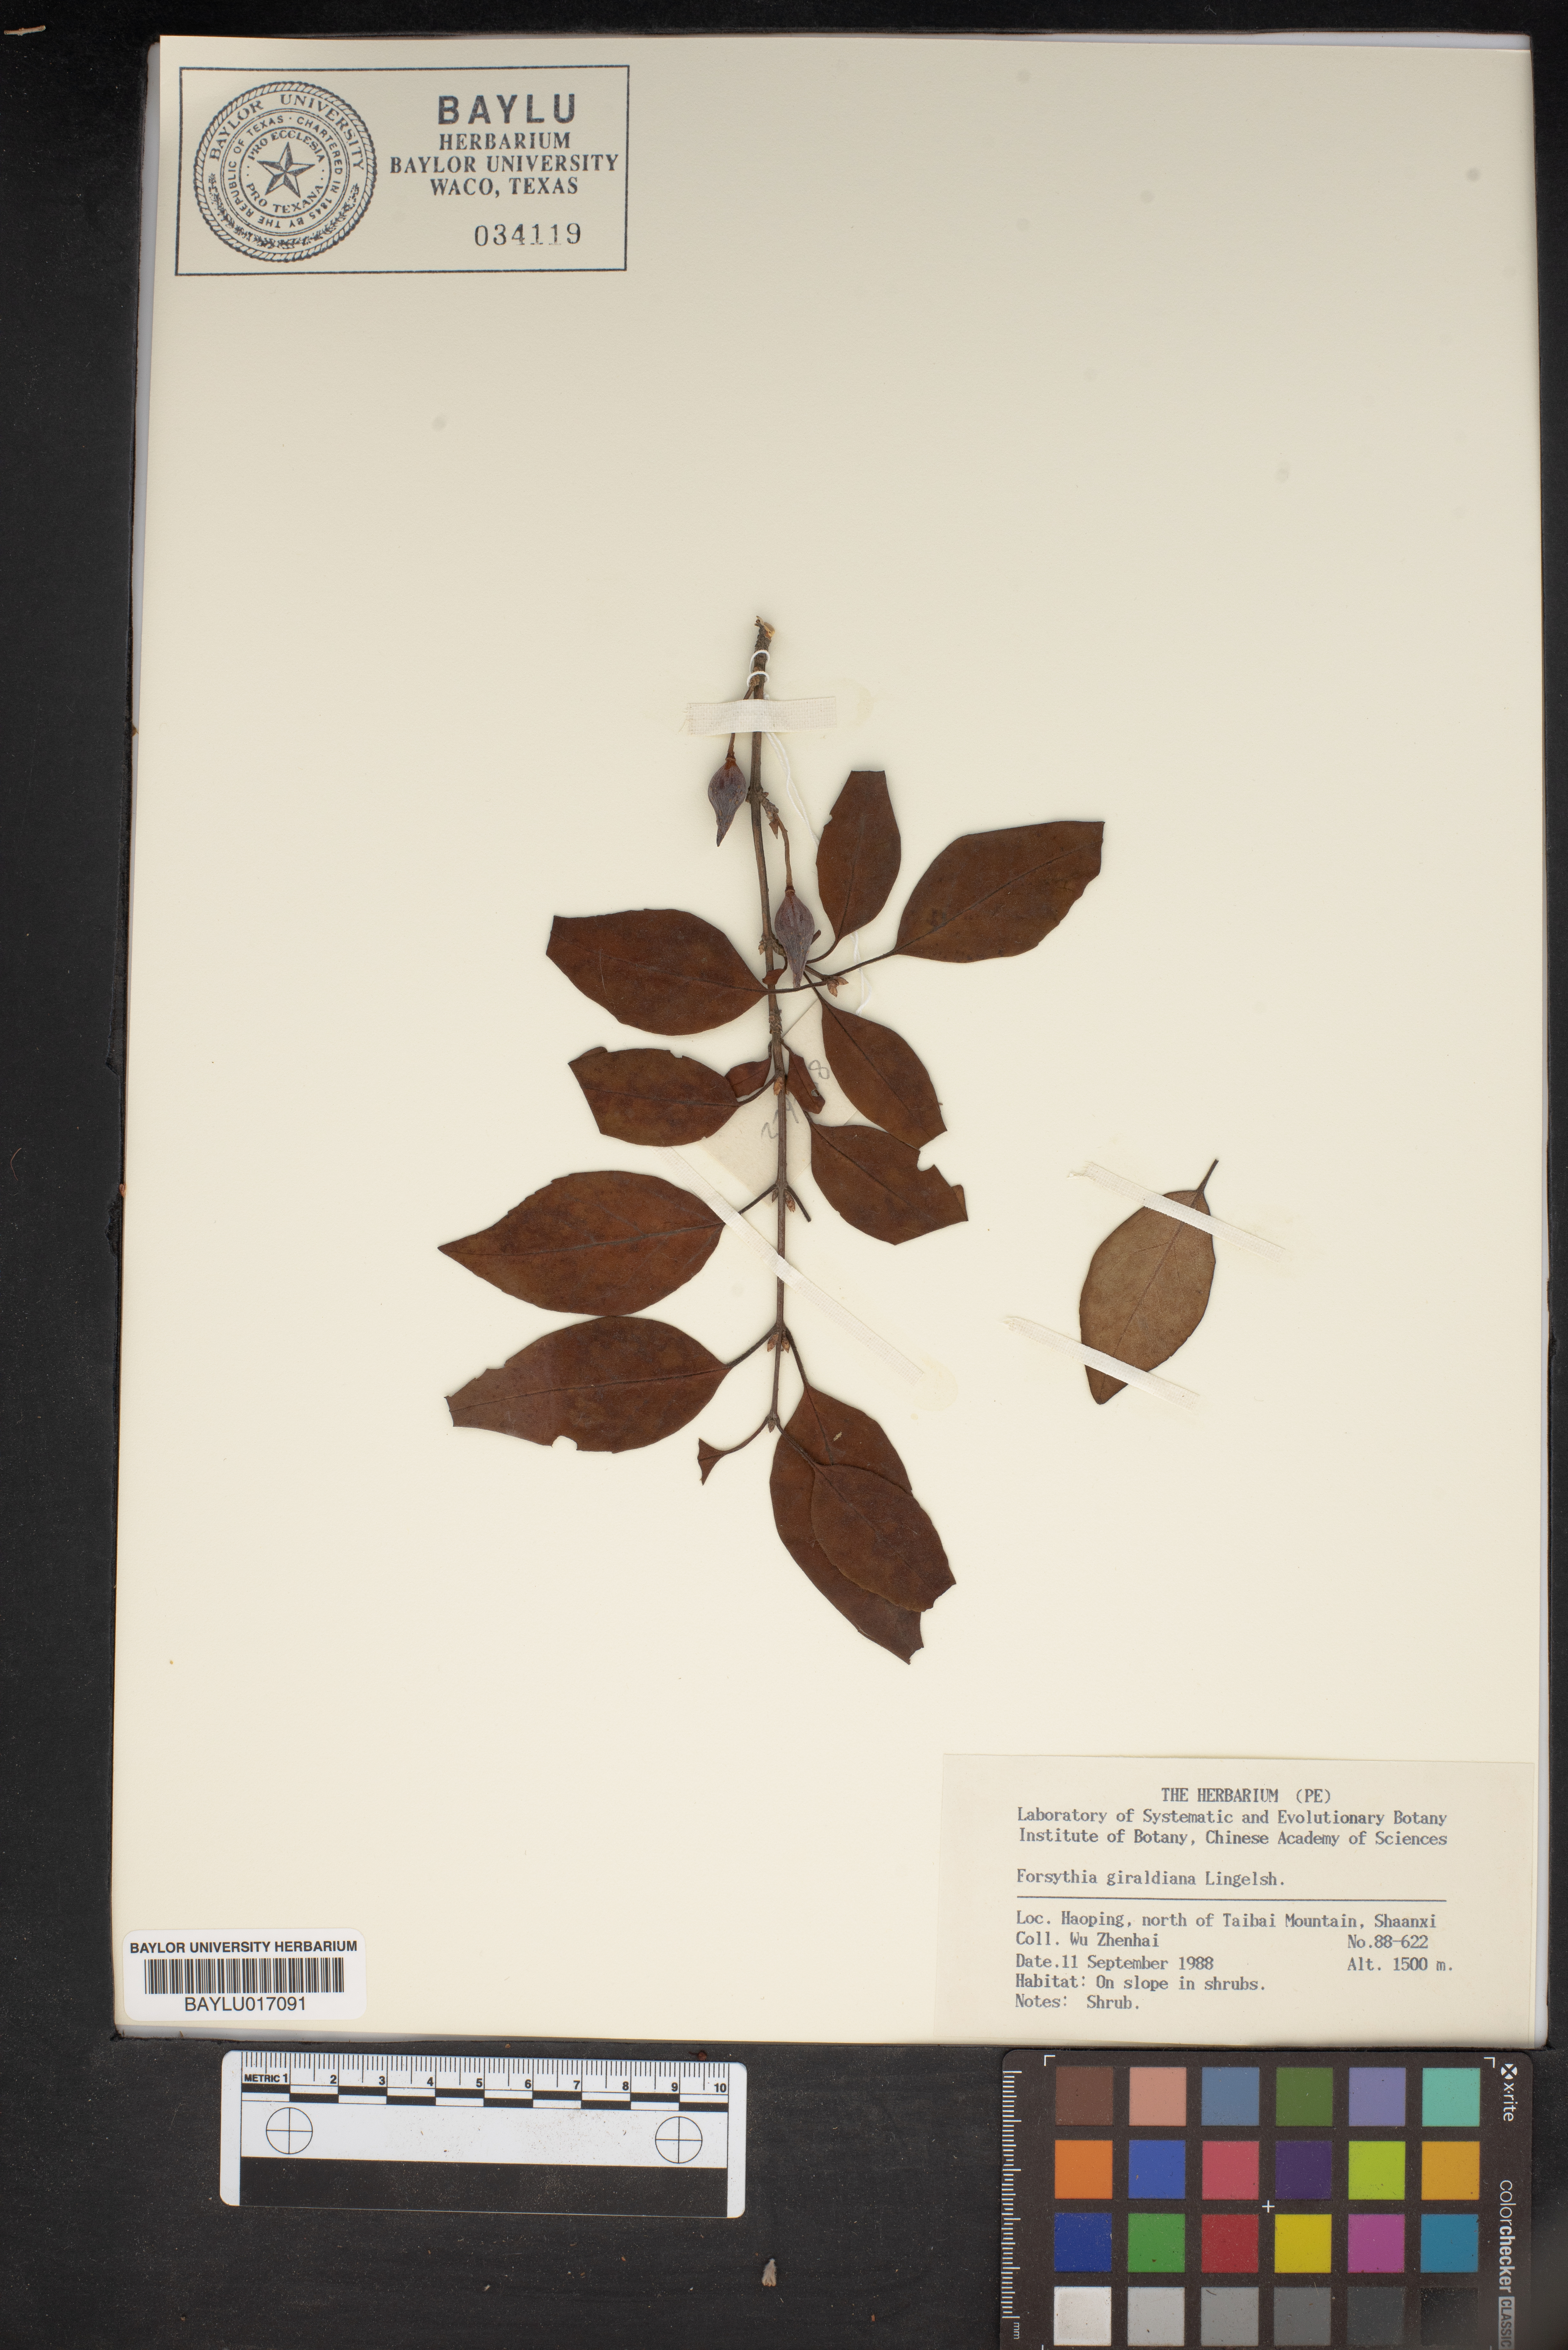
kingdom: Plantae
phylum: Tracheophyta
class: Magnoliopsida
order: Lamiales
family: Oleaceae
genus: Forsythia
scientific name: Forsythia giraldiana
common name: Early forsythia
